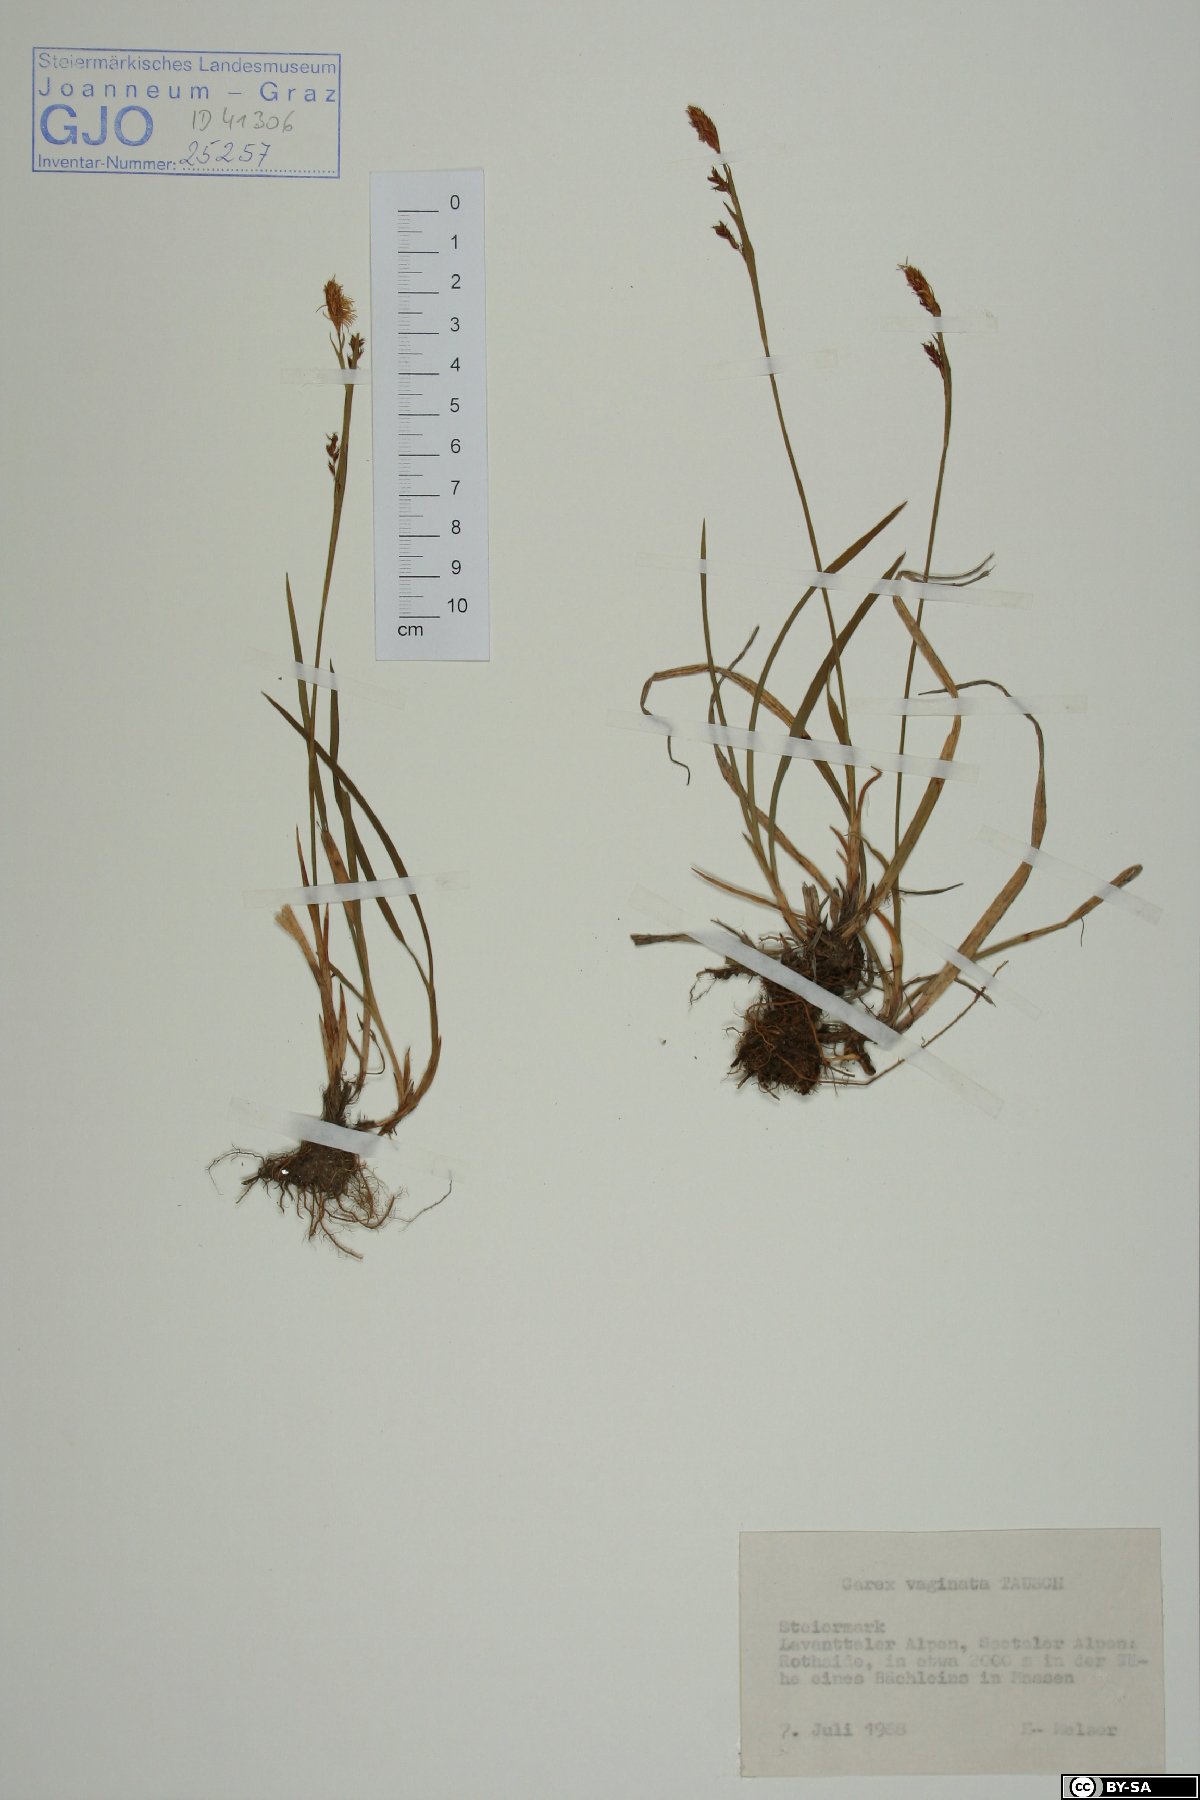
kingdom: Plantae
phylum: Tracheophyta
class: Liliopsida
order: Poales
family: Cyperaceae
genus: Carex
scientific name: Carex vaginata
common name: Sheathed sedge
